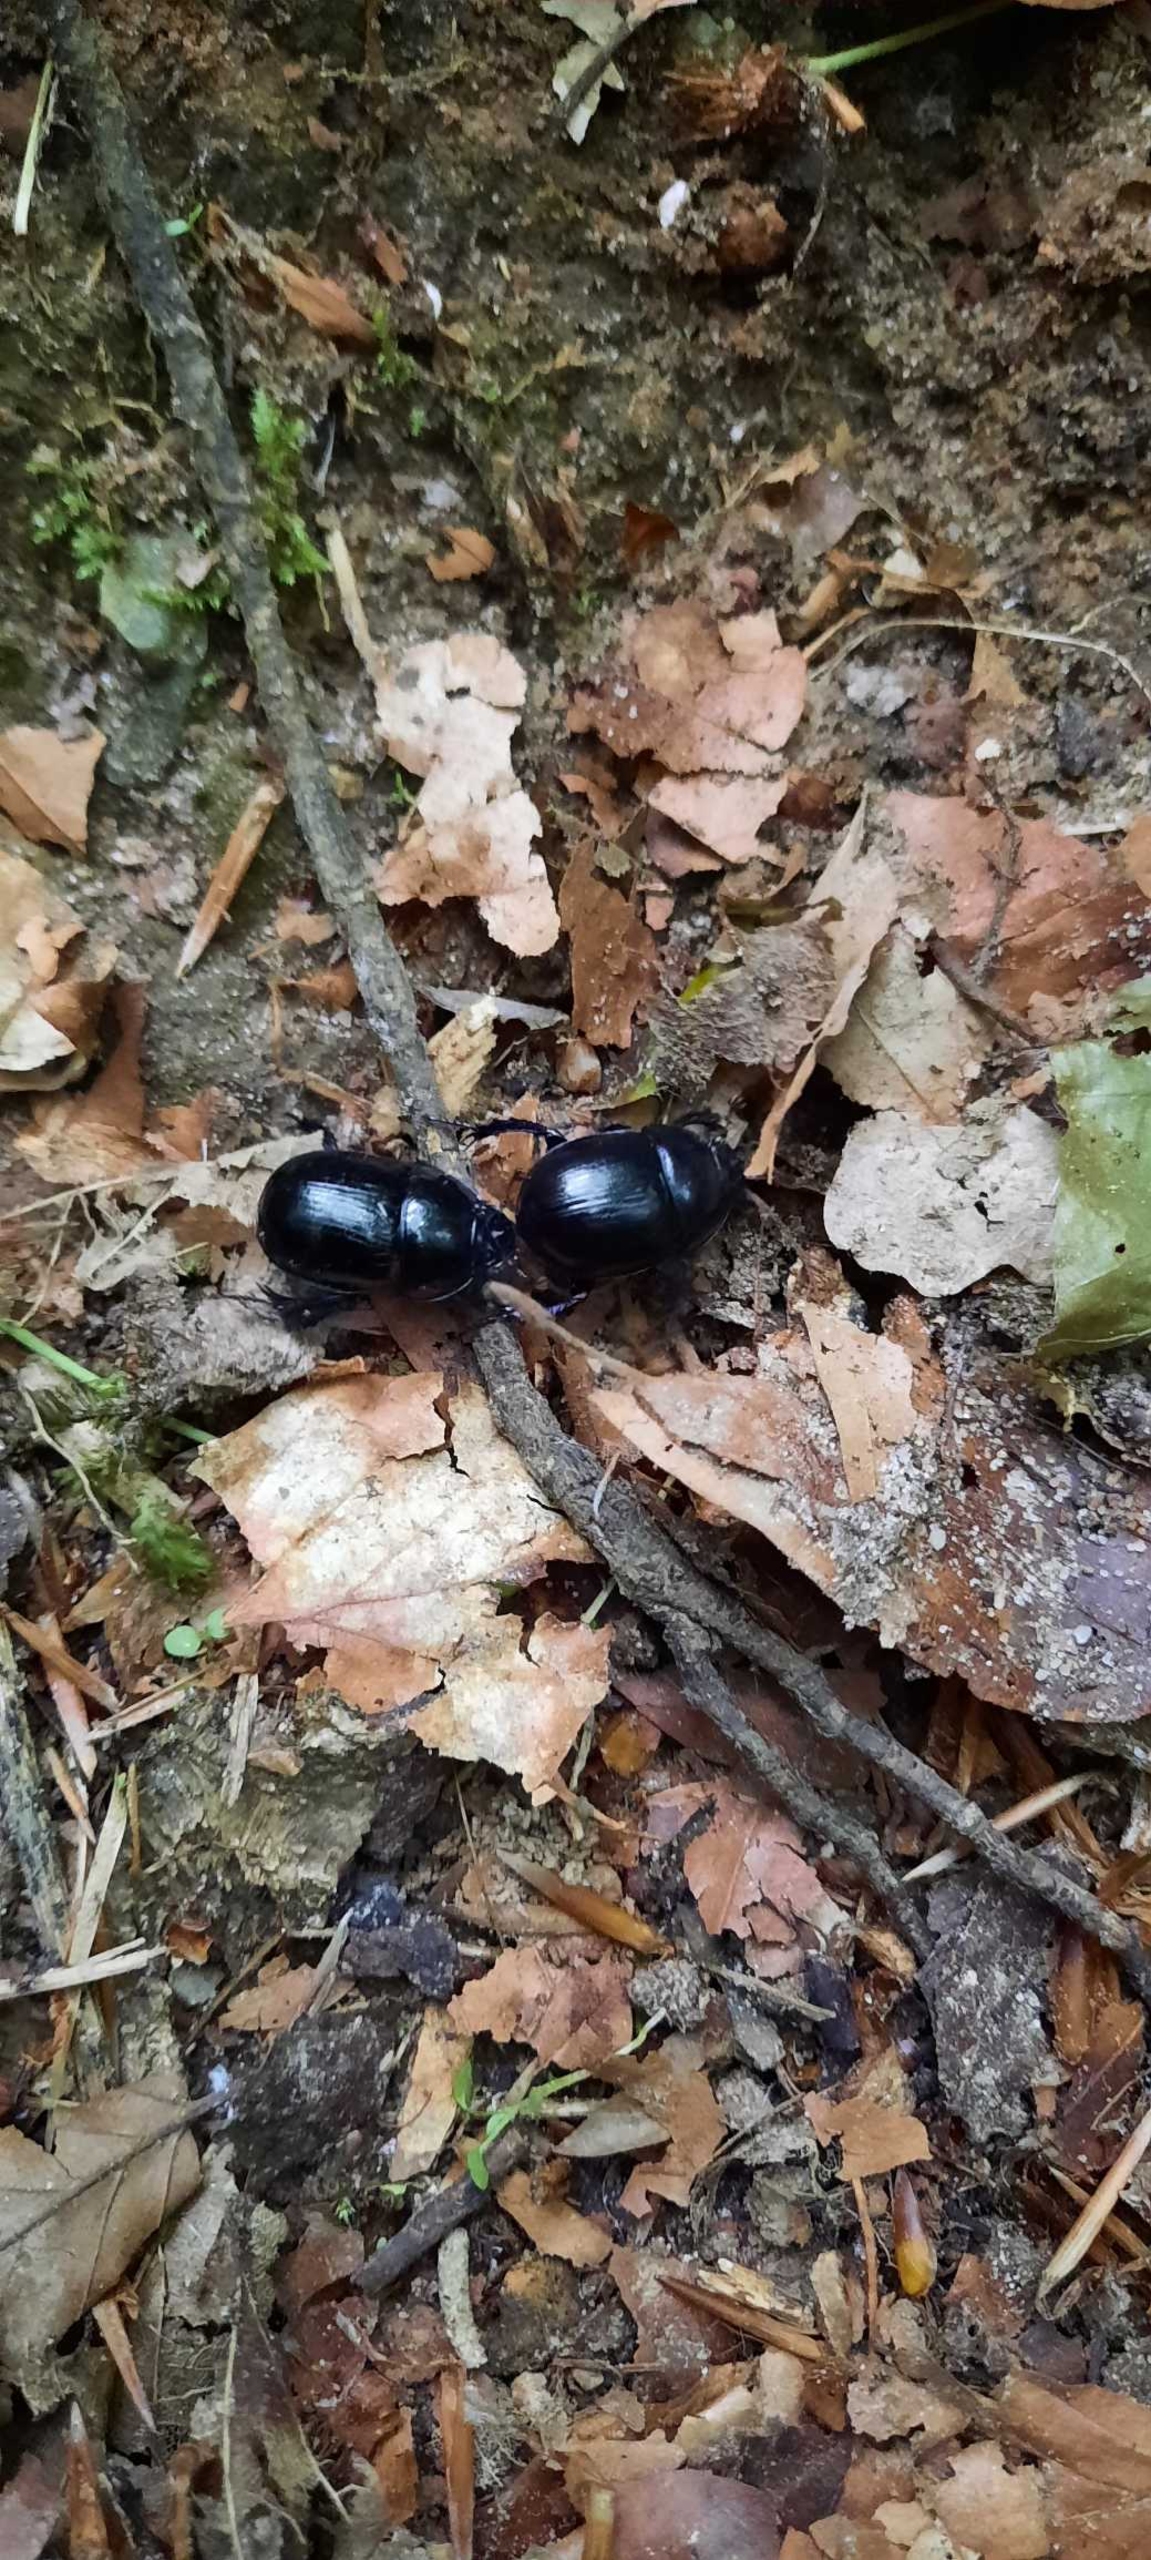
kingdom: Animalia
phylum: Arthropoda
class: Insecta
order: Coleoptera
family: Geotrupidae
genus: Anoplotrupes
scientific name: Anoplotrupes stercorosus
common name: Skovskarnbasse
